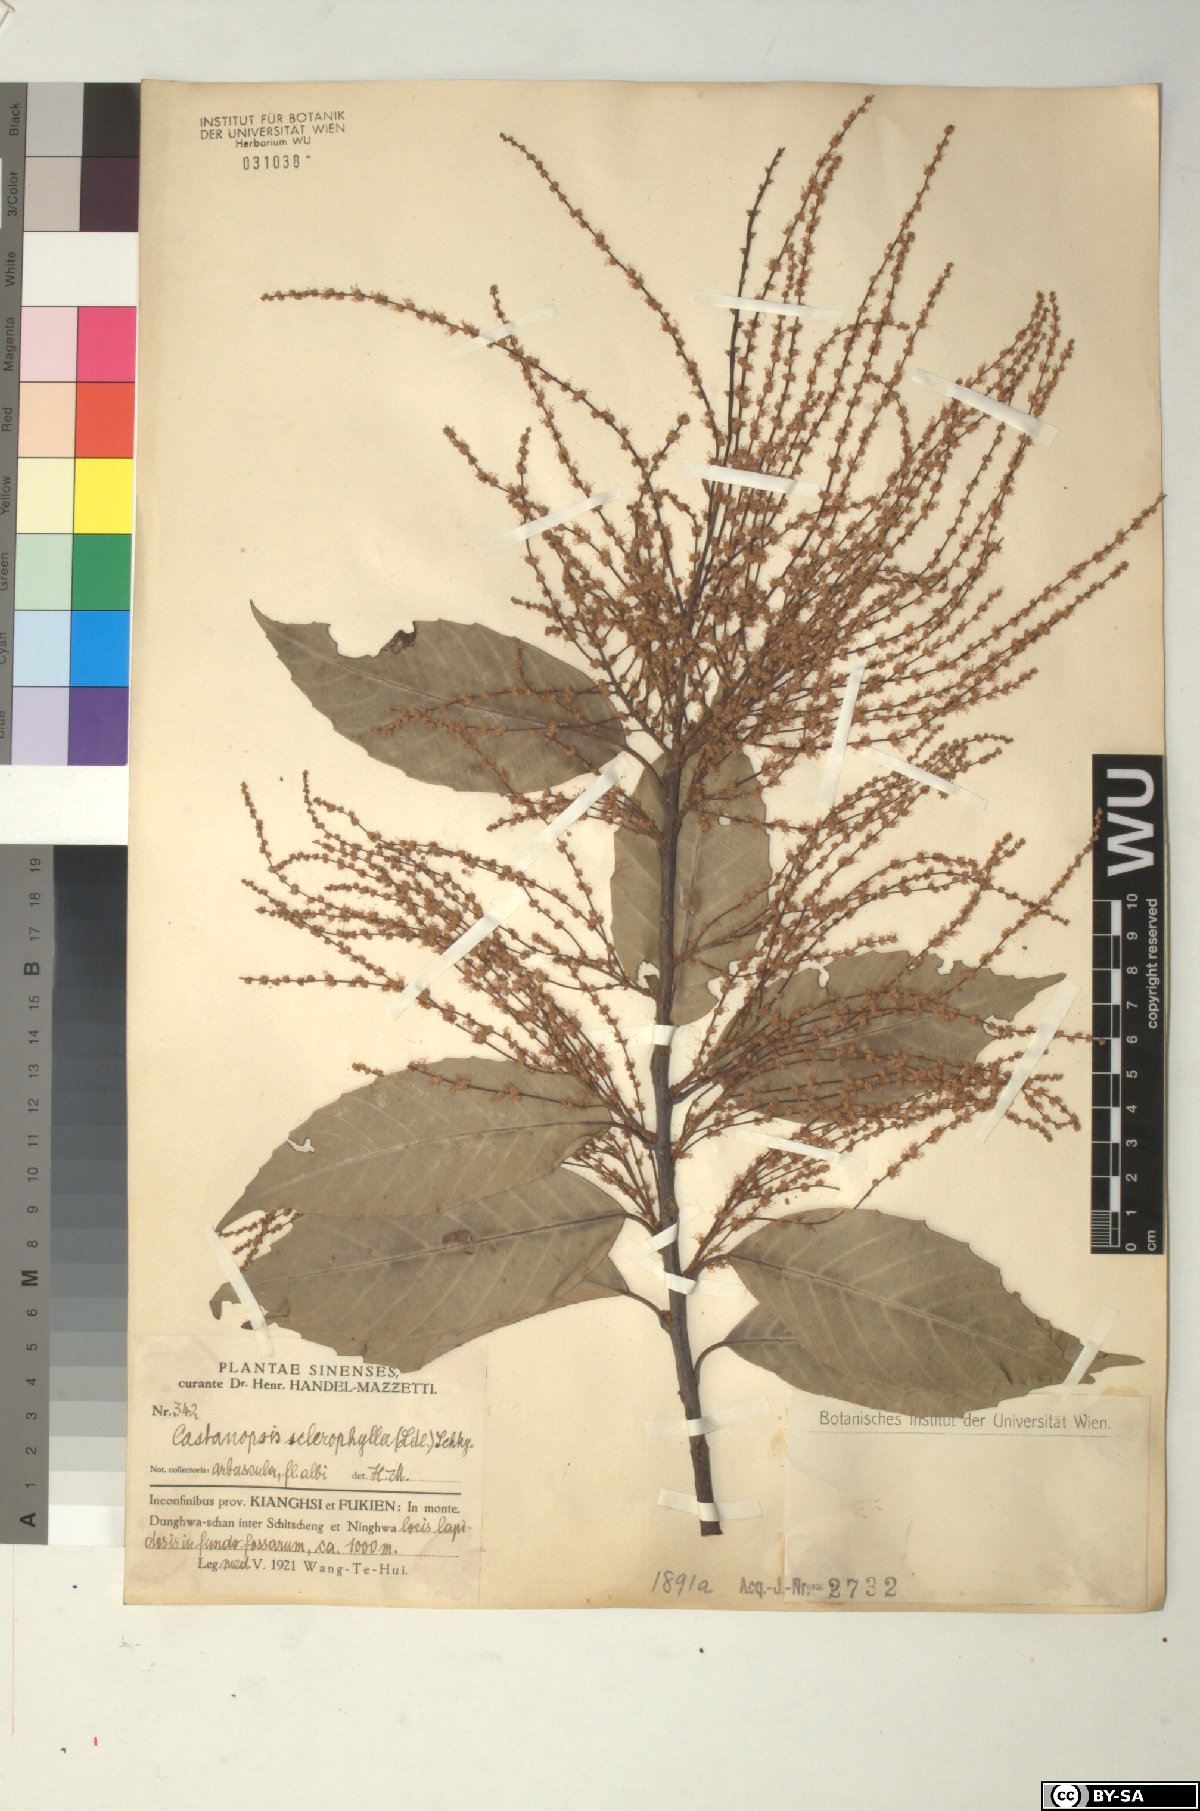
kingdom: Plantae
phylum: Tracheophyta
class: Magnoliopsida
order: Fagales
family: Fagaceae
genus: Castanopsis
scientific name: Castanopsis sclerophylla
